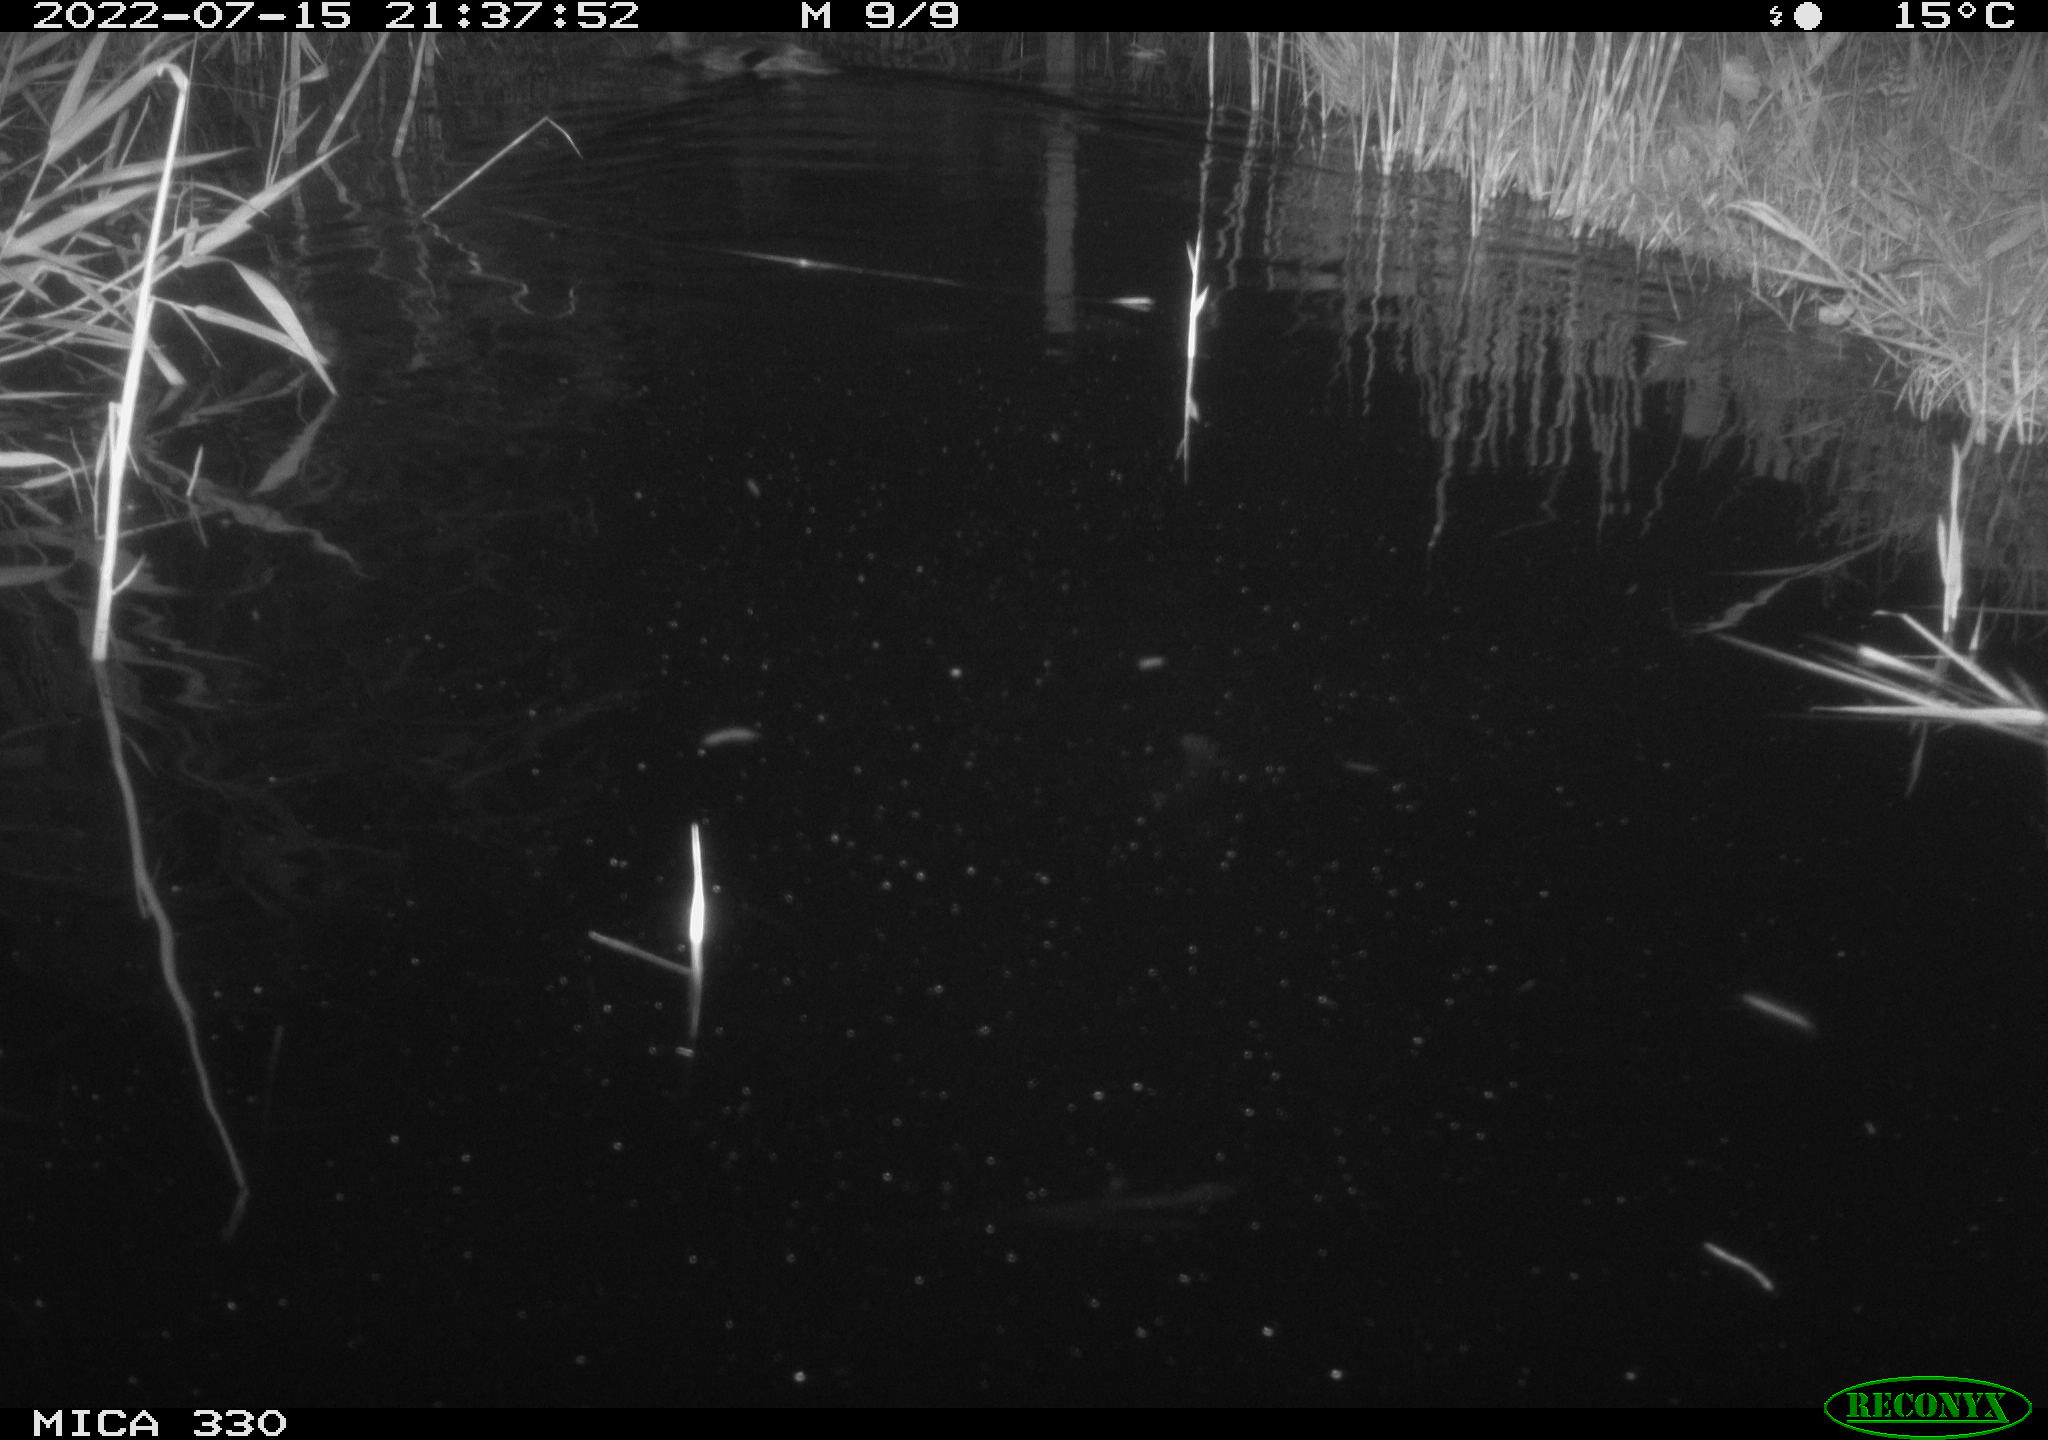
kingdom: Animalia
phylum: Chordata
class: Aves
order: Anseriformes
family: Anatidae
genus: Anas
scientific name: Anas platyrhynchos
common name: Mallard
